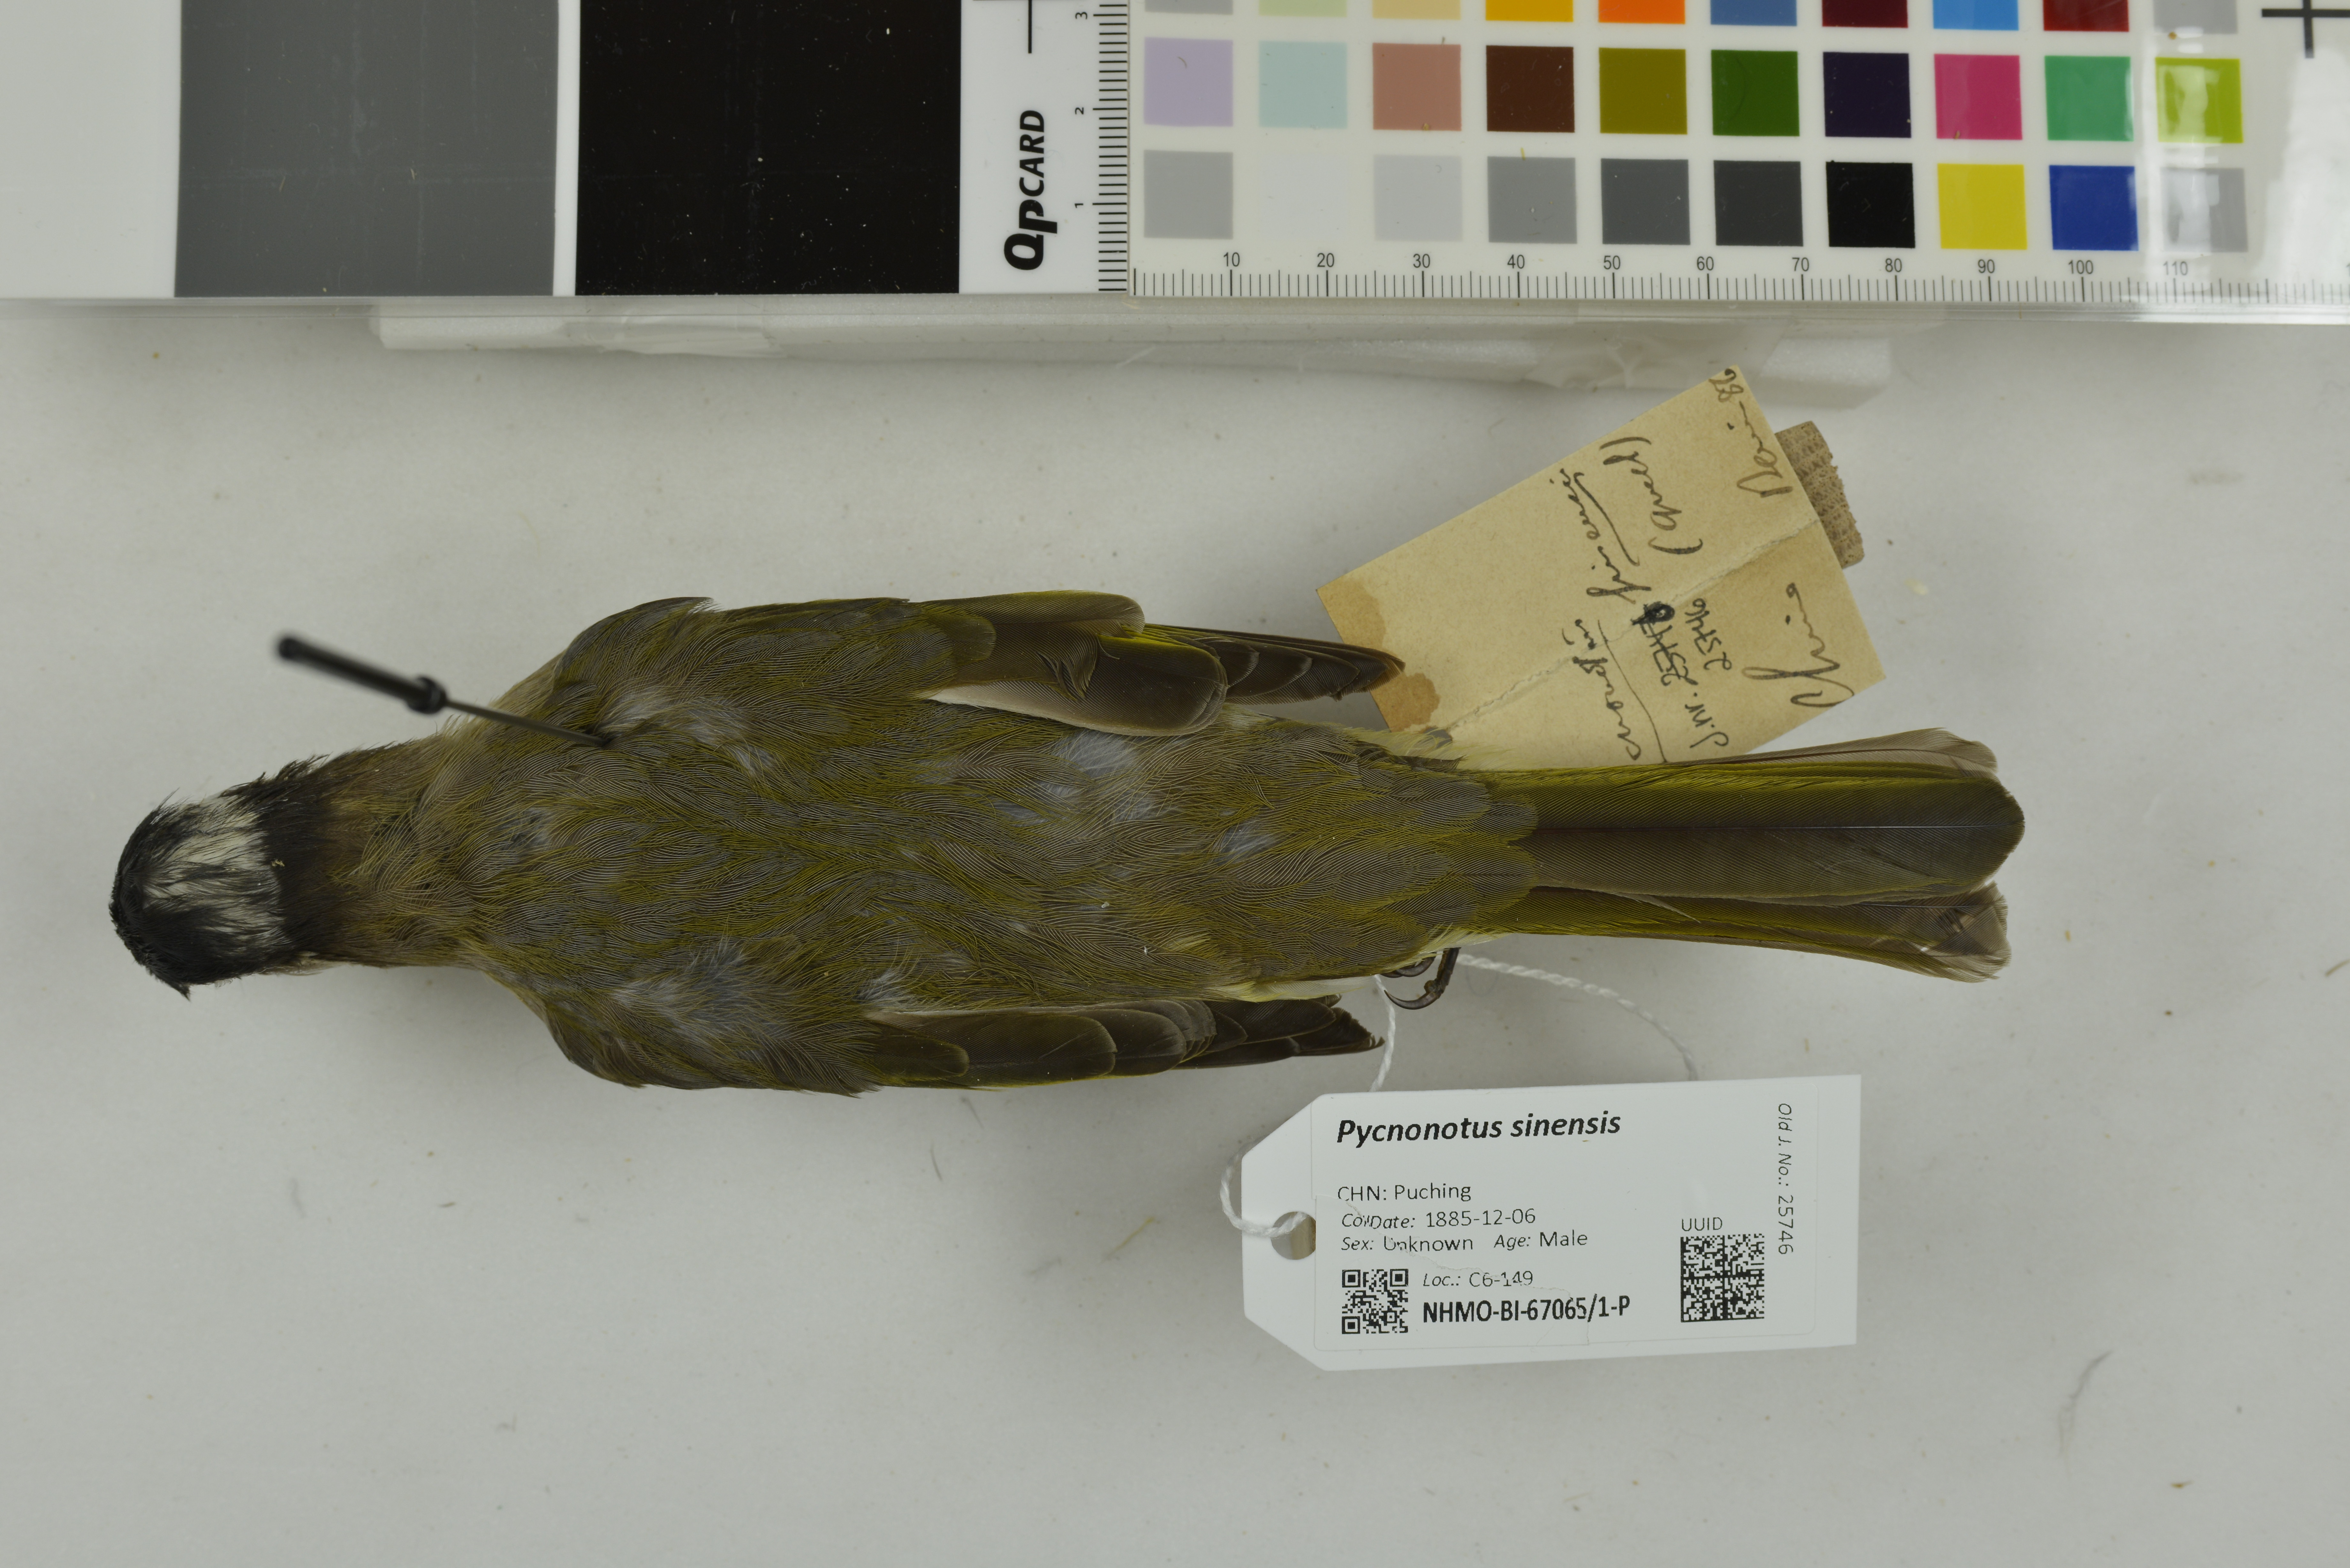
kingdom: Animalia
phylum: Chordata
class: Aves
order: Passeriformes
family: Pycnonotidae
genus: Pycnonotus
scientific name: Pycnonotus sinensis
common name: Light-vented bulbul
